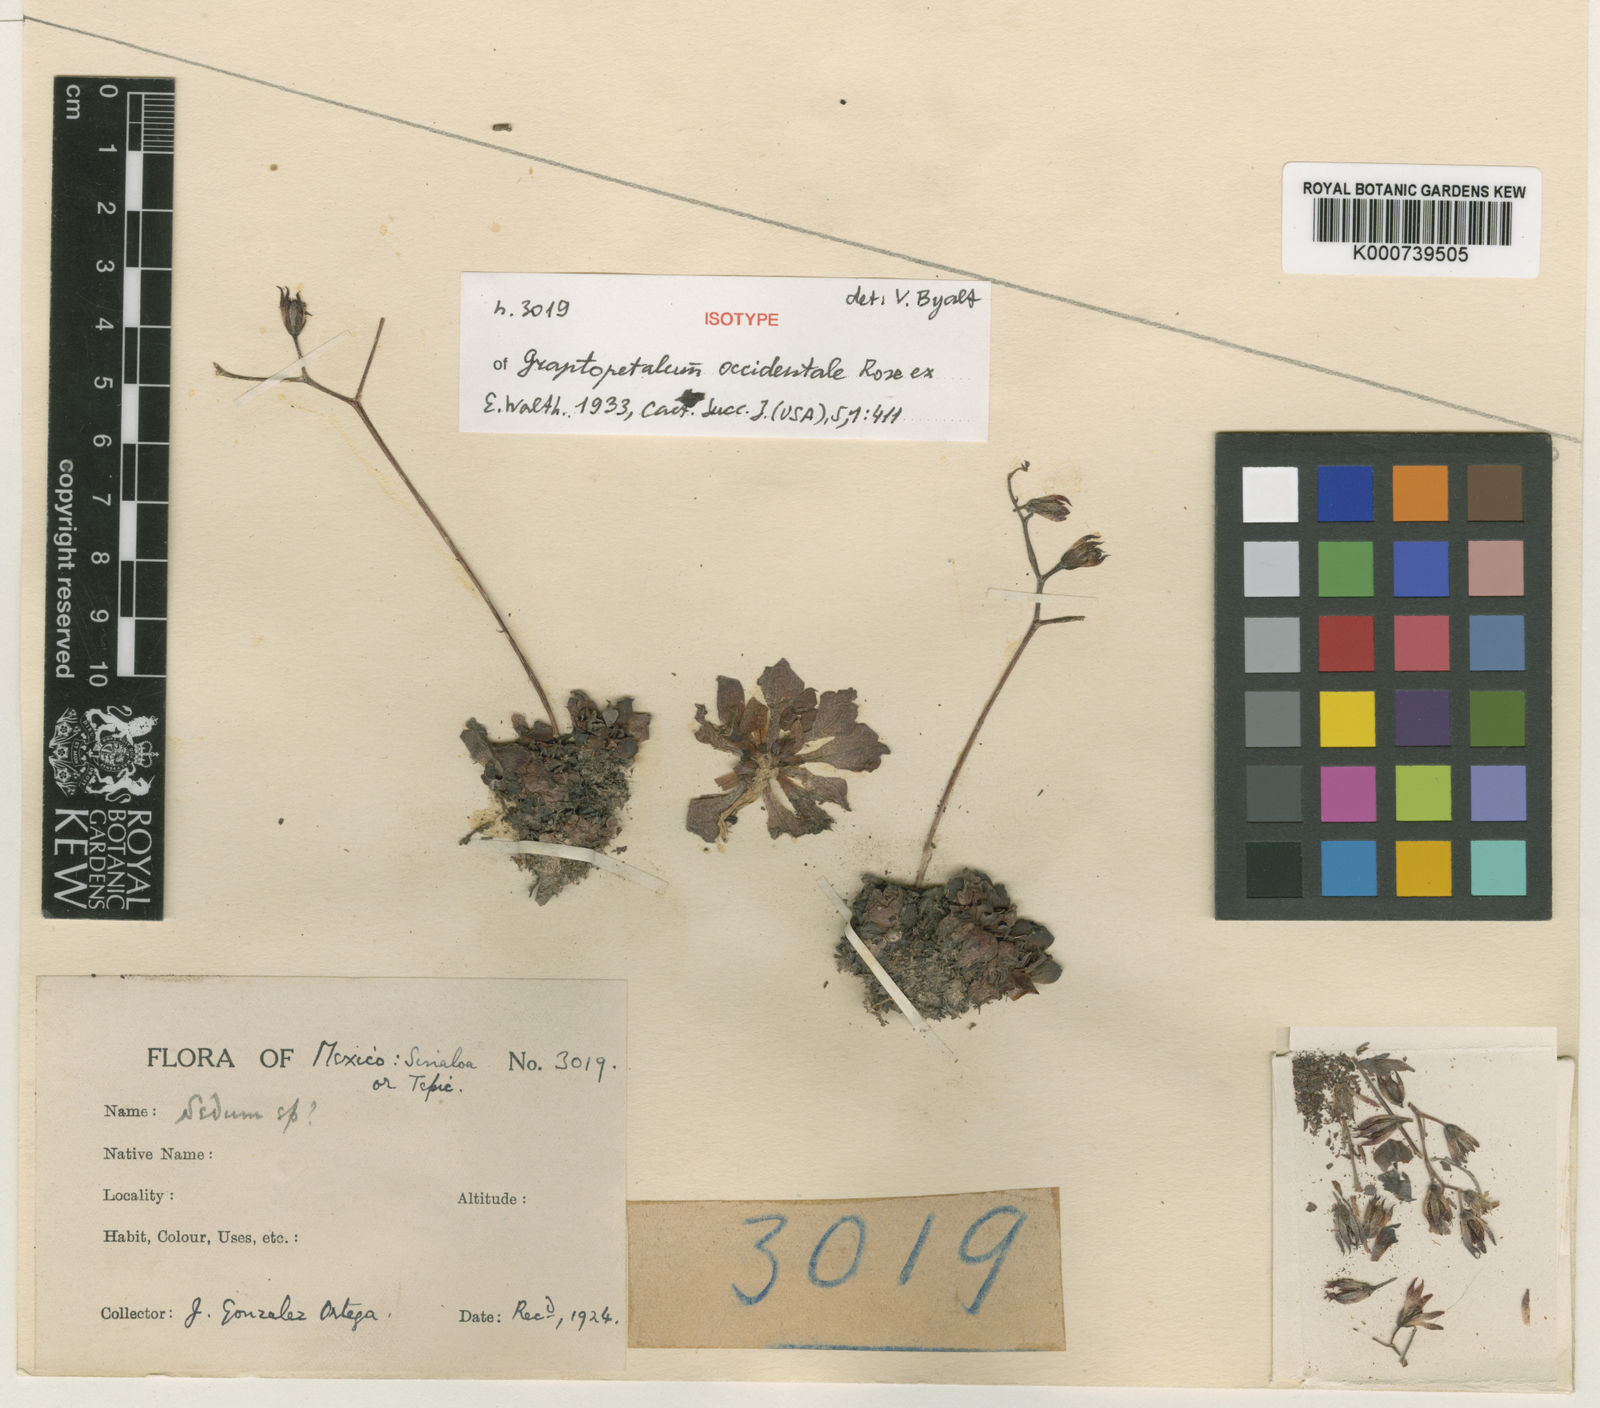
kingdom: Plantae
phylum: Tracheophyta
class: Magnoliopsida
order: Saxifragales
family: Crassulaceae
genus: Echeveria
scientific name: Echeveria kimnachii
